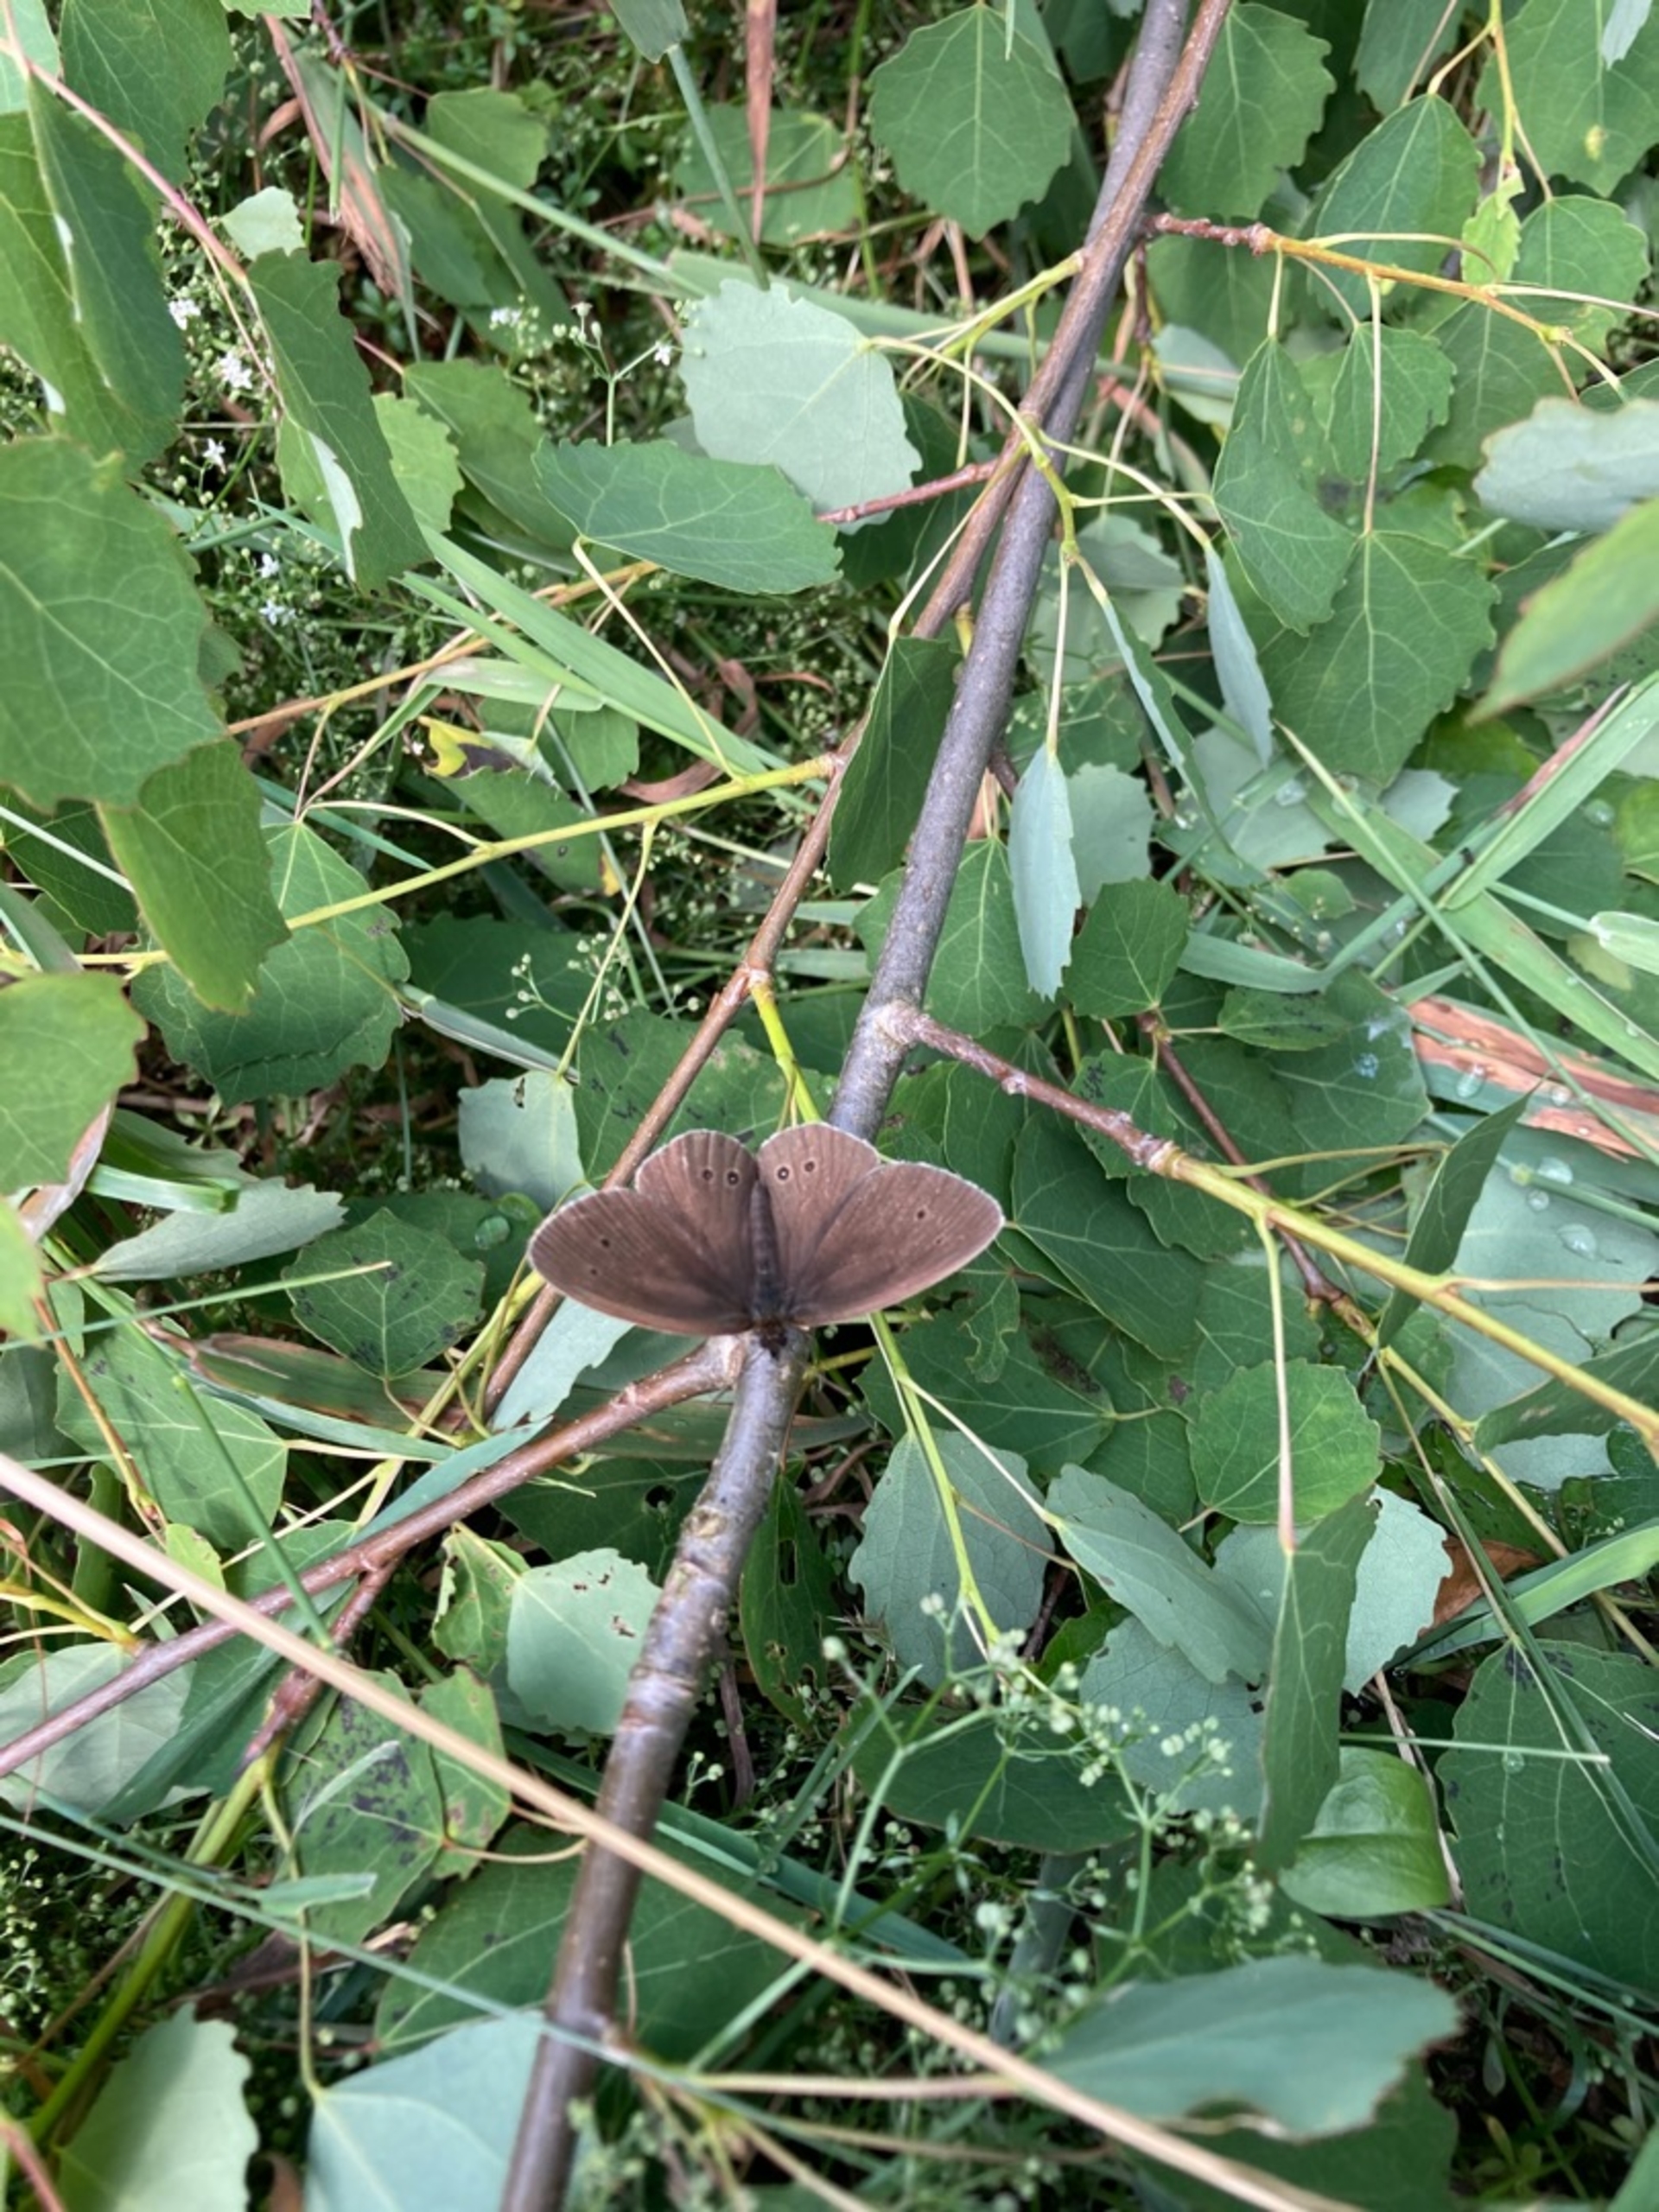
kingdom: Animalia
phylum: Arthropoda
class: Insecta
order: Lepidoptera
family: Nymphalidae
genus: Aphantopus
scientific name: Aphantopus hyperantus
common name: Engrandøje
